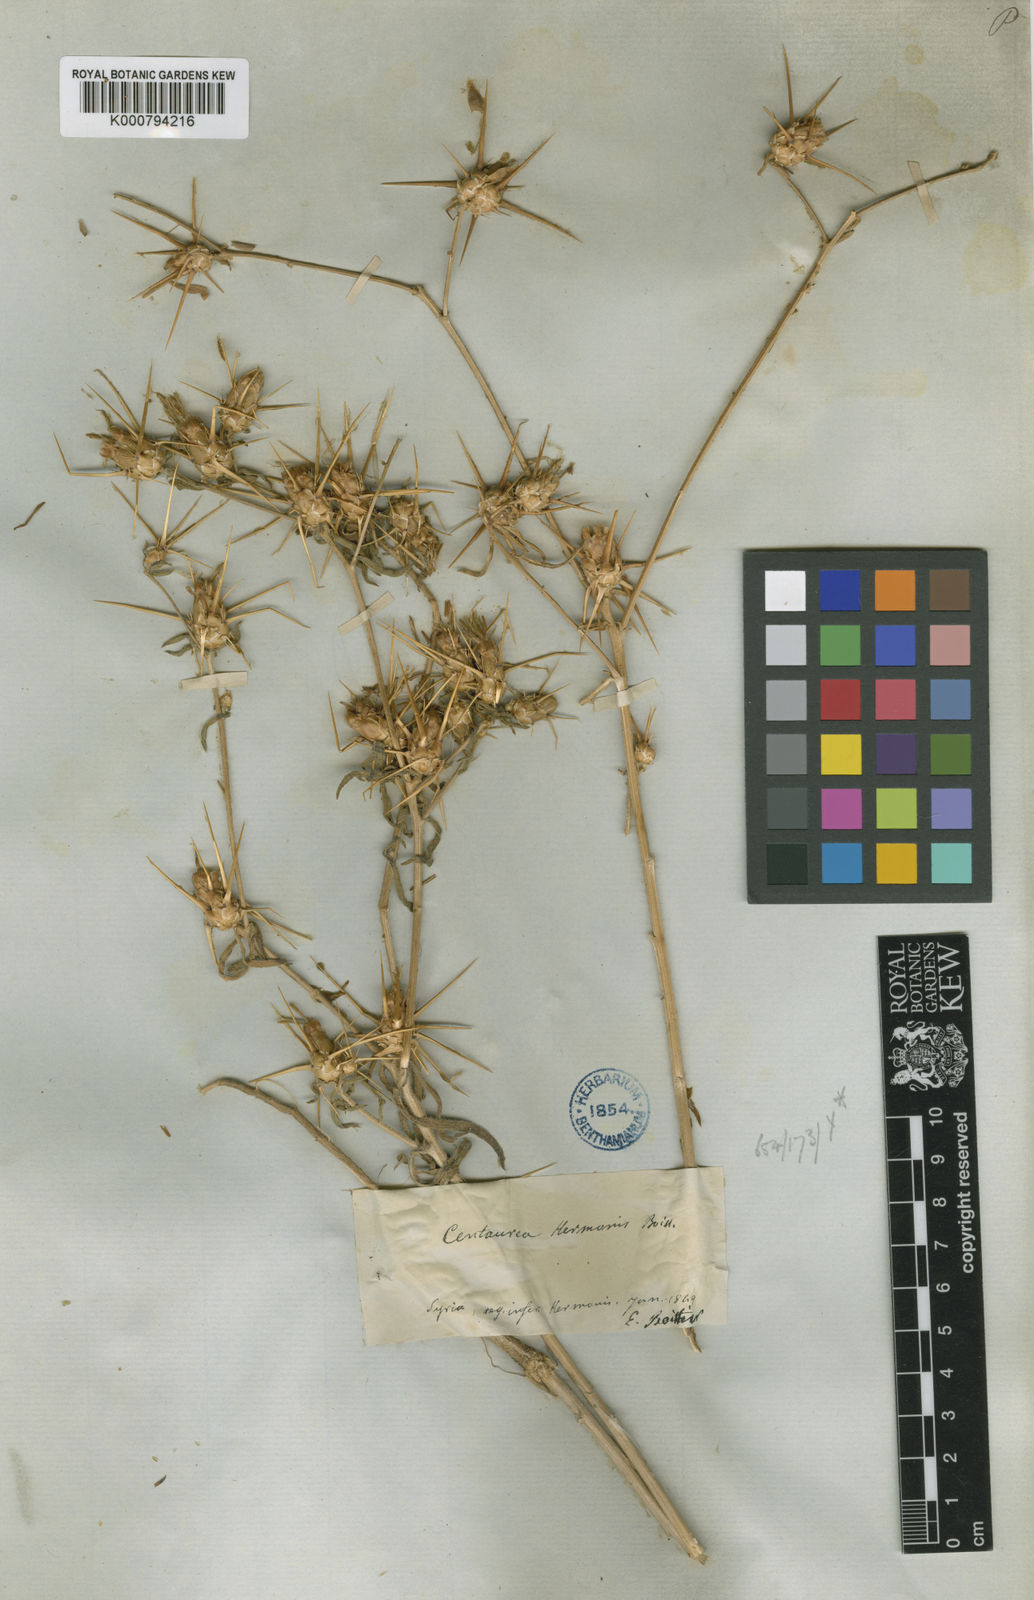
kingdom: Plantae
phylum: Tracheophyta
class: Magnoliopsida
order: Asterales
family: Asteraceae
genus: Centaurea
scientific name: Centaurea iberica
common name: Iberian knapweed
